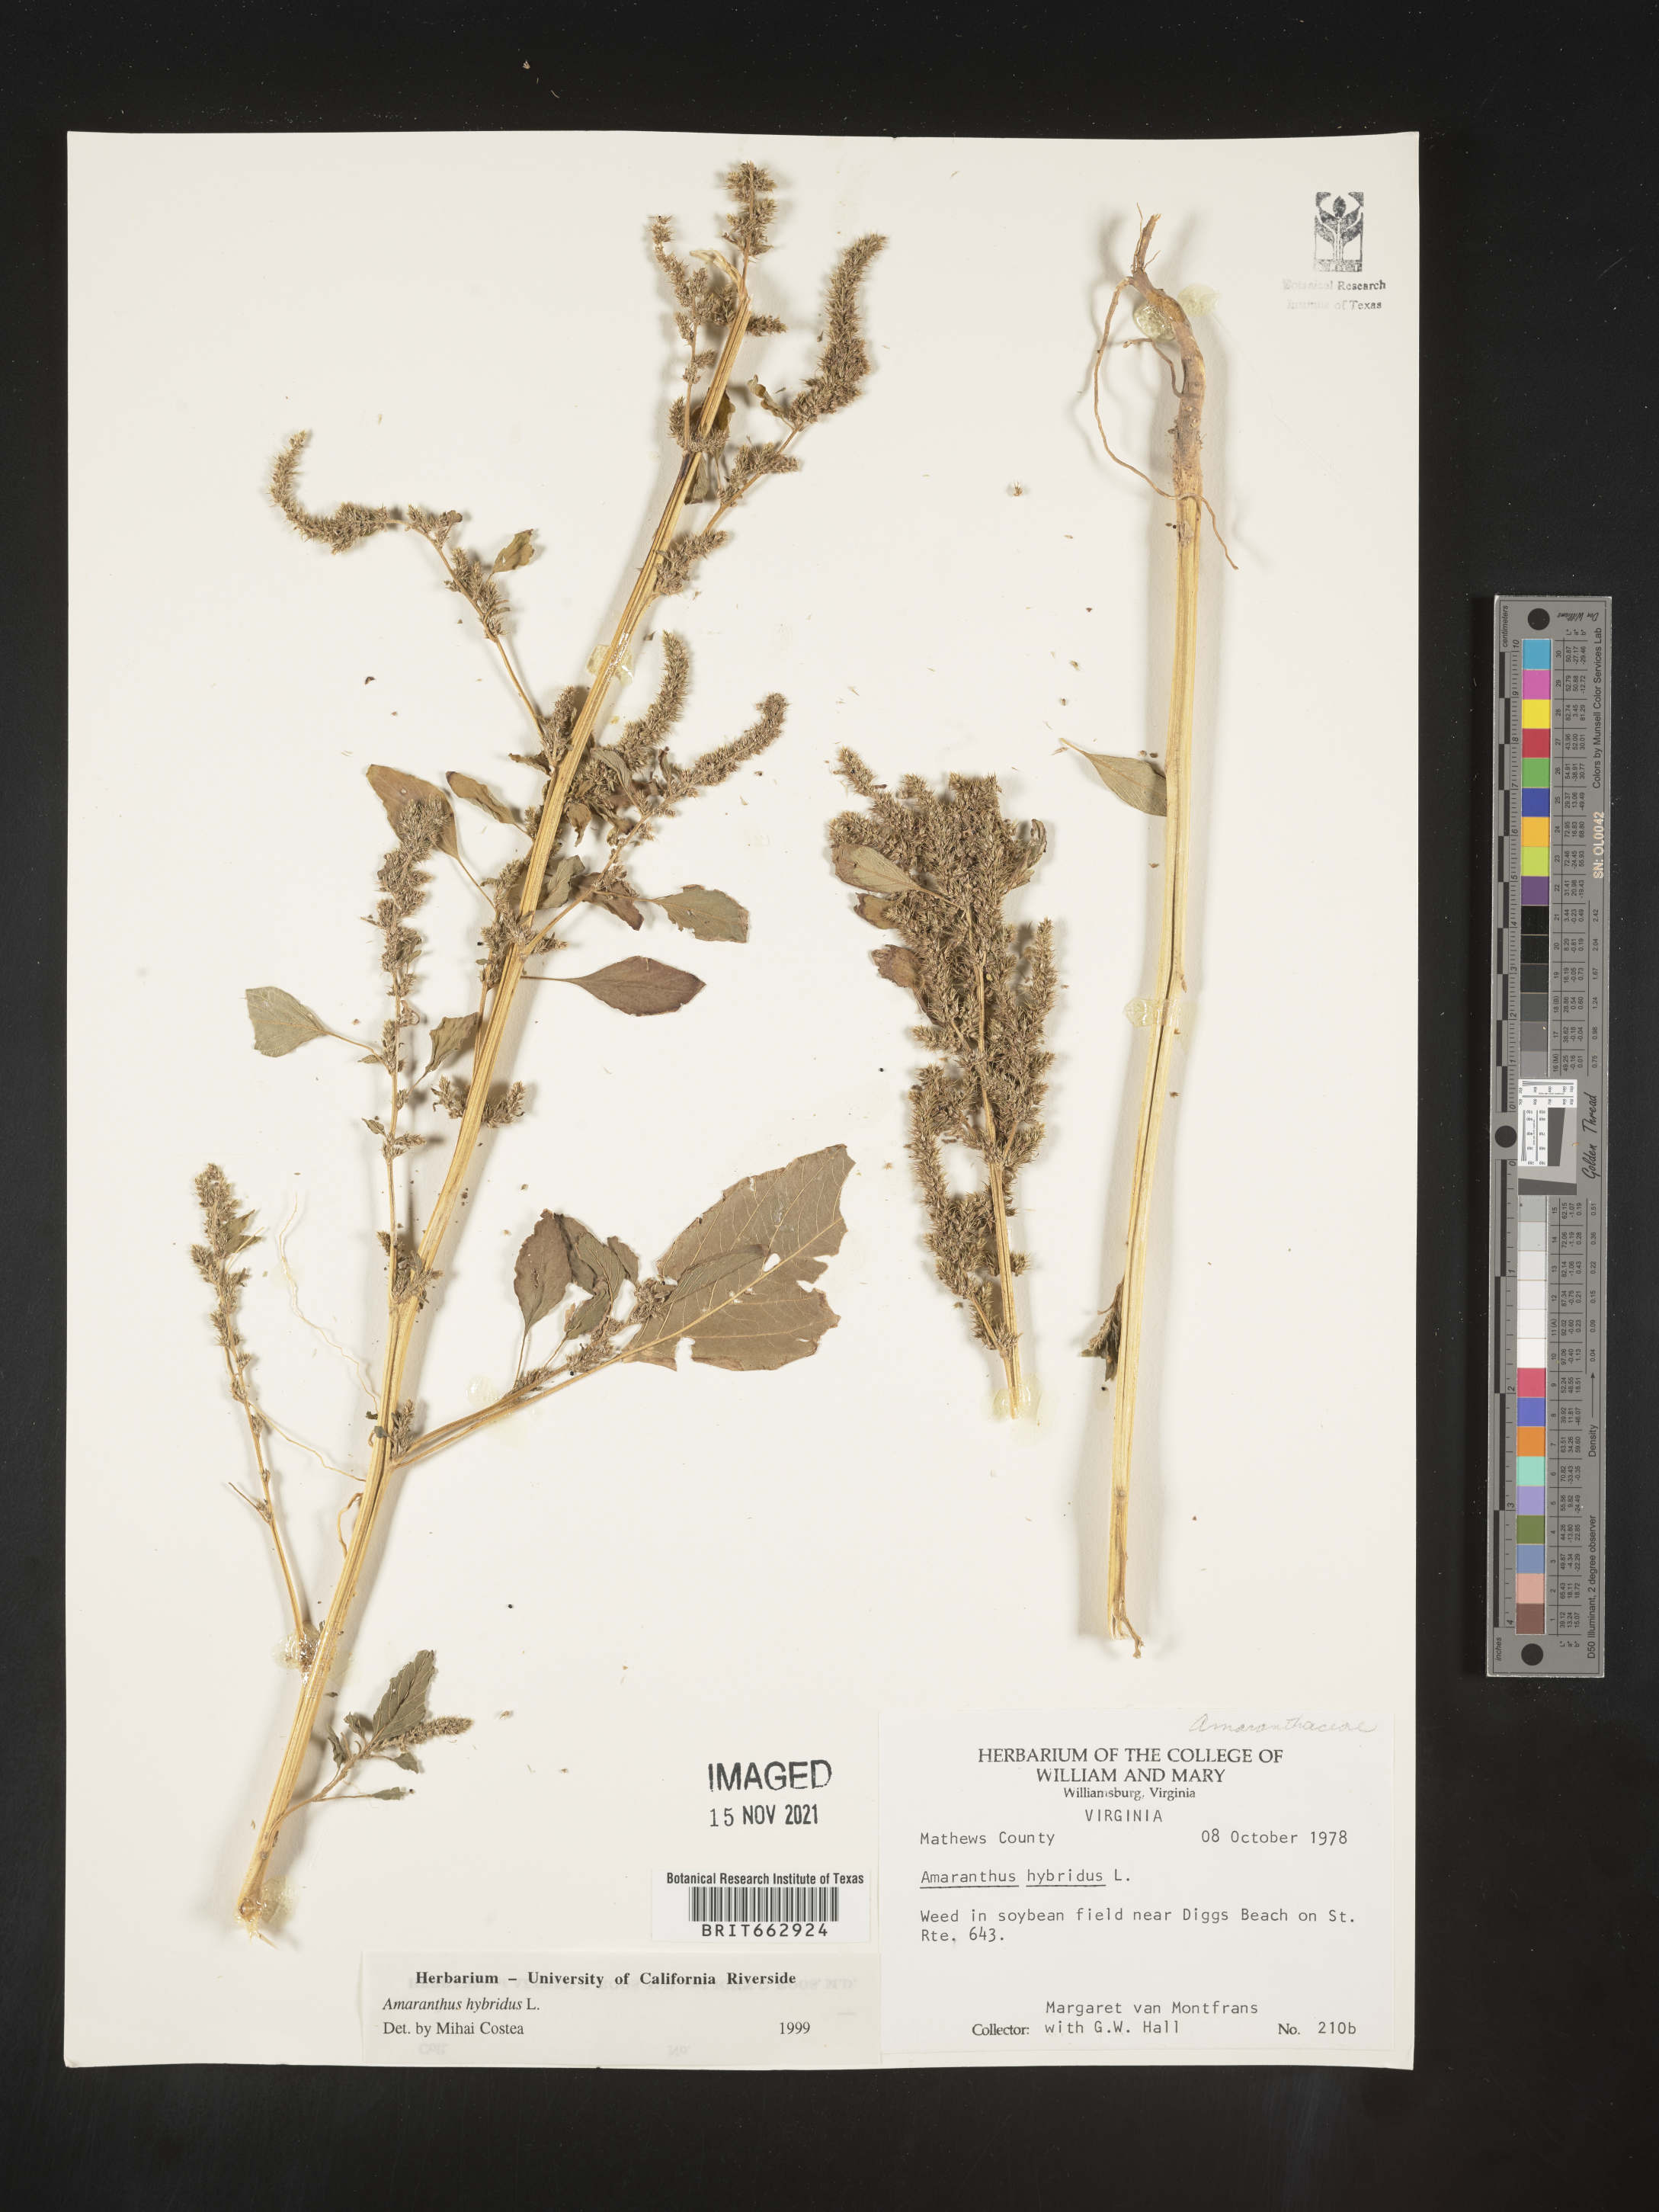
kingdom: Plantae
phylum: Tracheophyta
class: Magnoliopsida
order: Caryophyllales
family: Amaranthaceae
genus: Amaranthus
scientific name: Amaranthus hybridus
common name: Green amaranth
